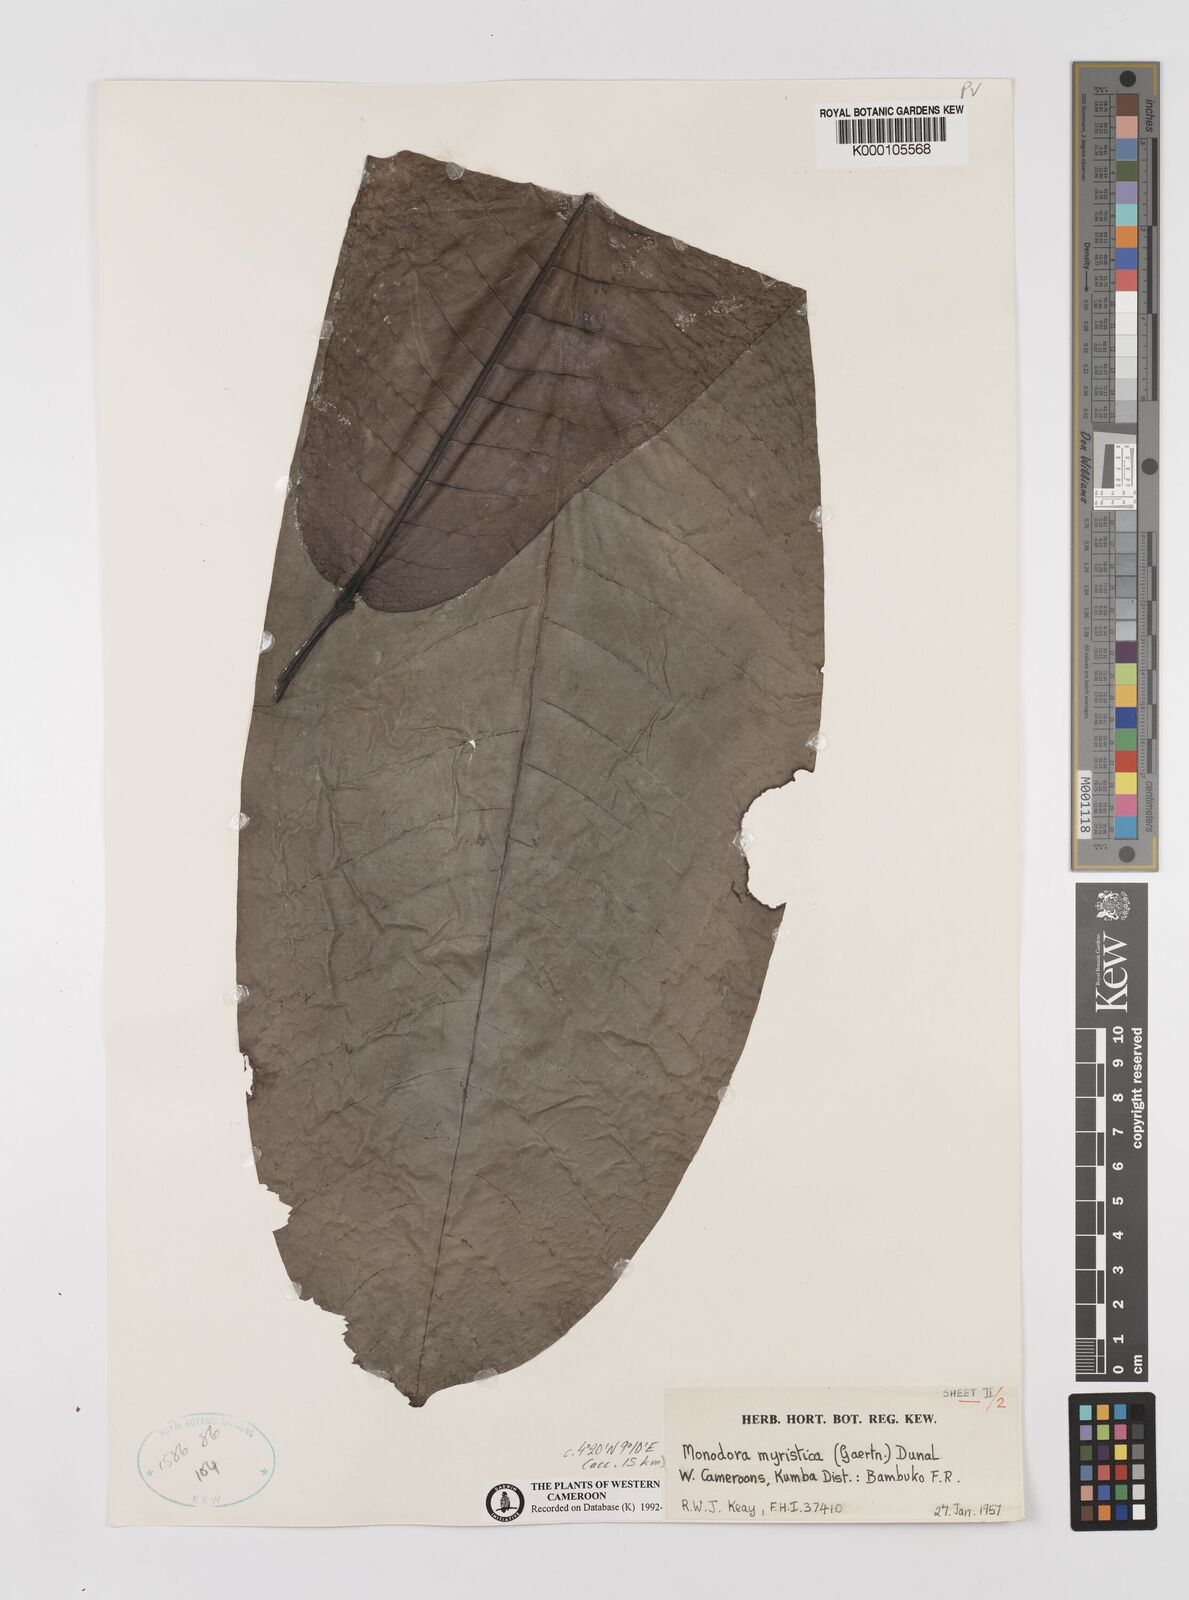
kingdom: Plantae
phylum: Tracheophyta
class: Magnoliopsida
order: Magnoliales
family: Annonaceae
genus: Monodora
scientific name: Monodora myristica
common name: African nutmeg
